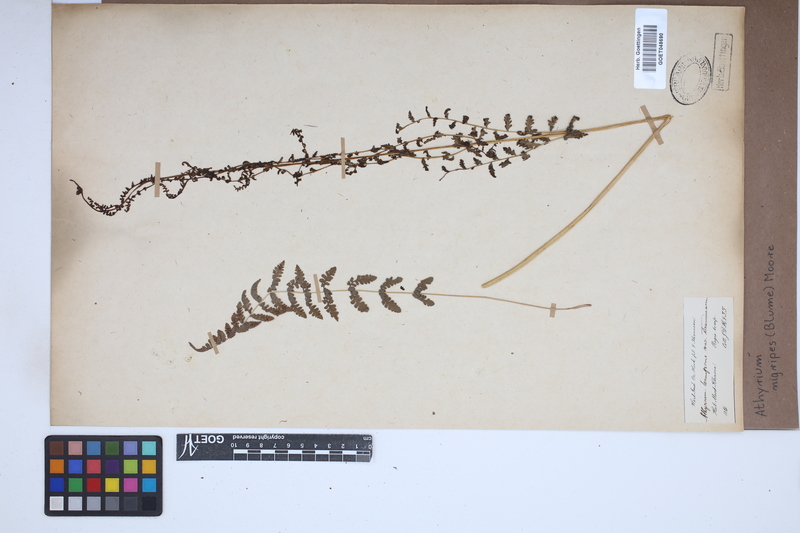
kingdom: Plantae
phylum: Tracheophyta
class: Polypodiopsida
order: Polypodiales
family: Athyriaceae
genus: Athyrium
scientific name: Athyrium nigripes
